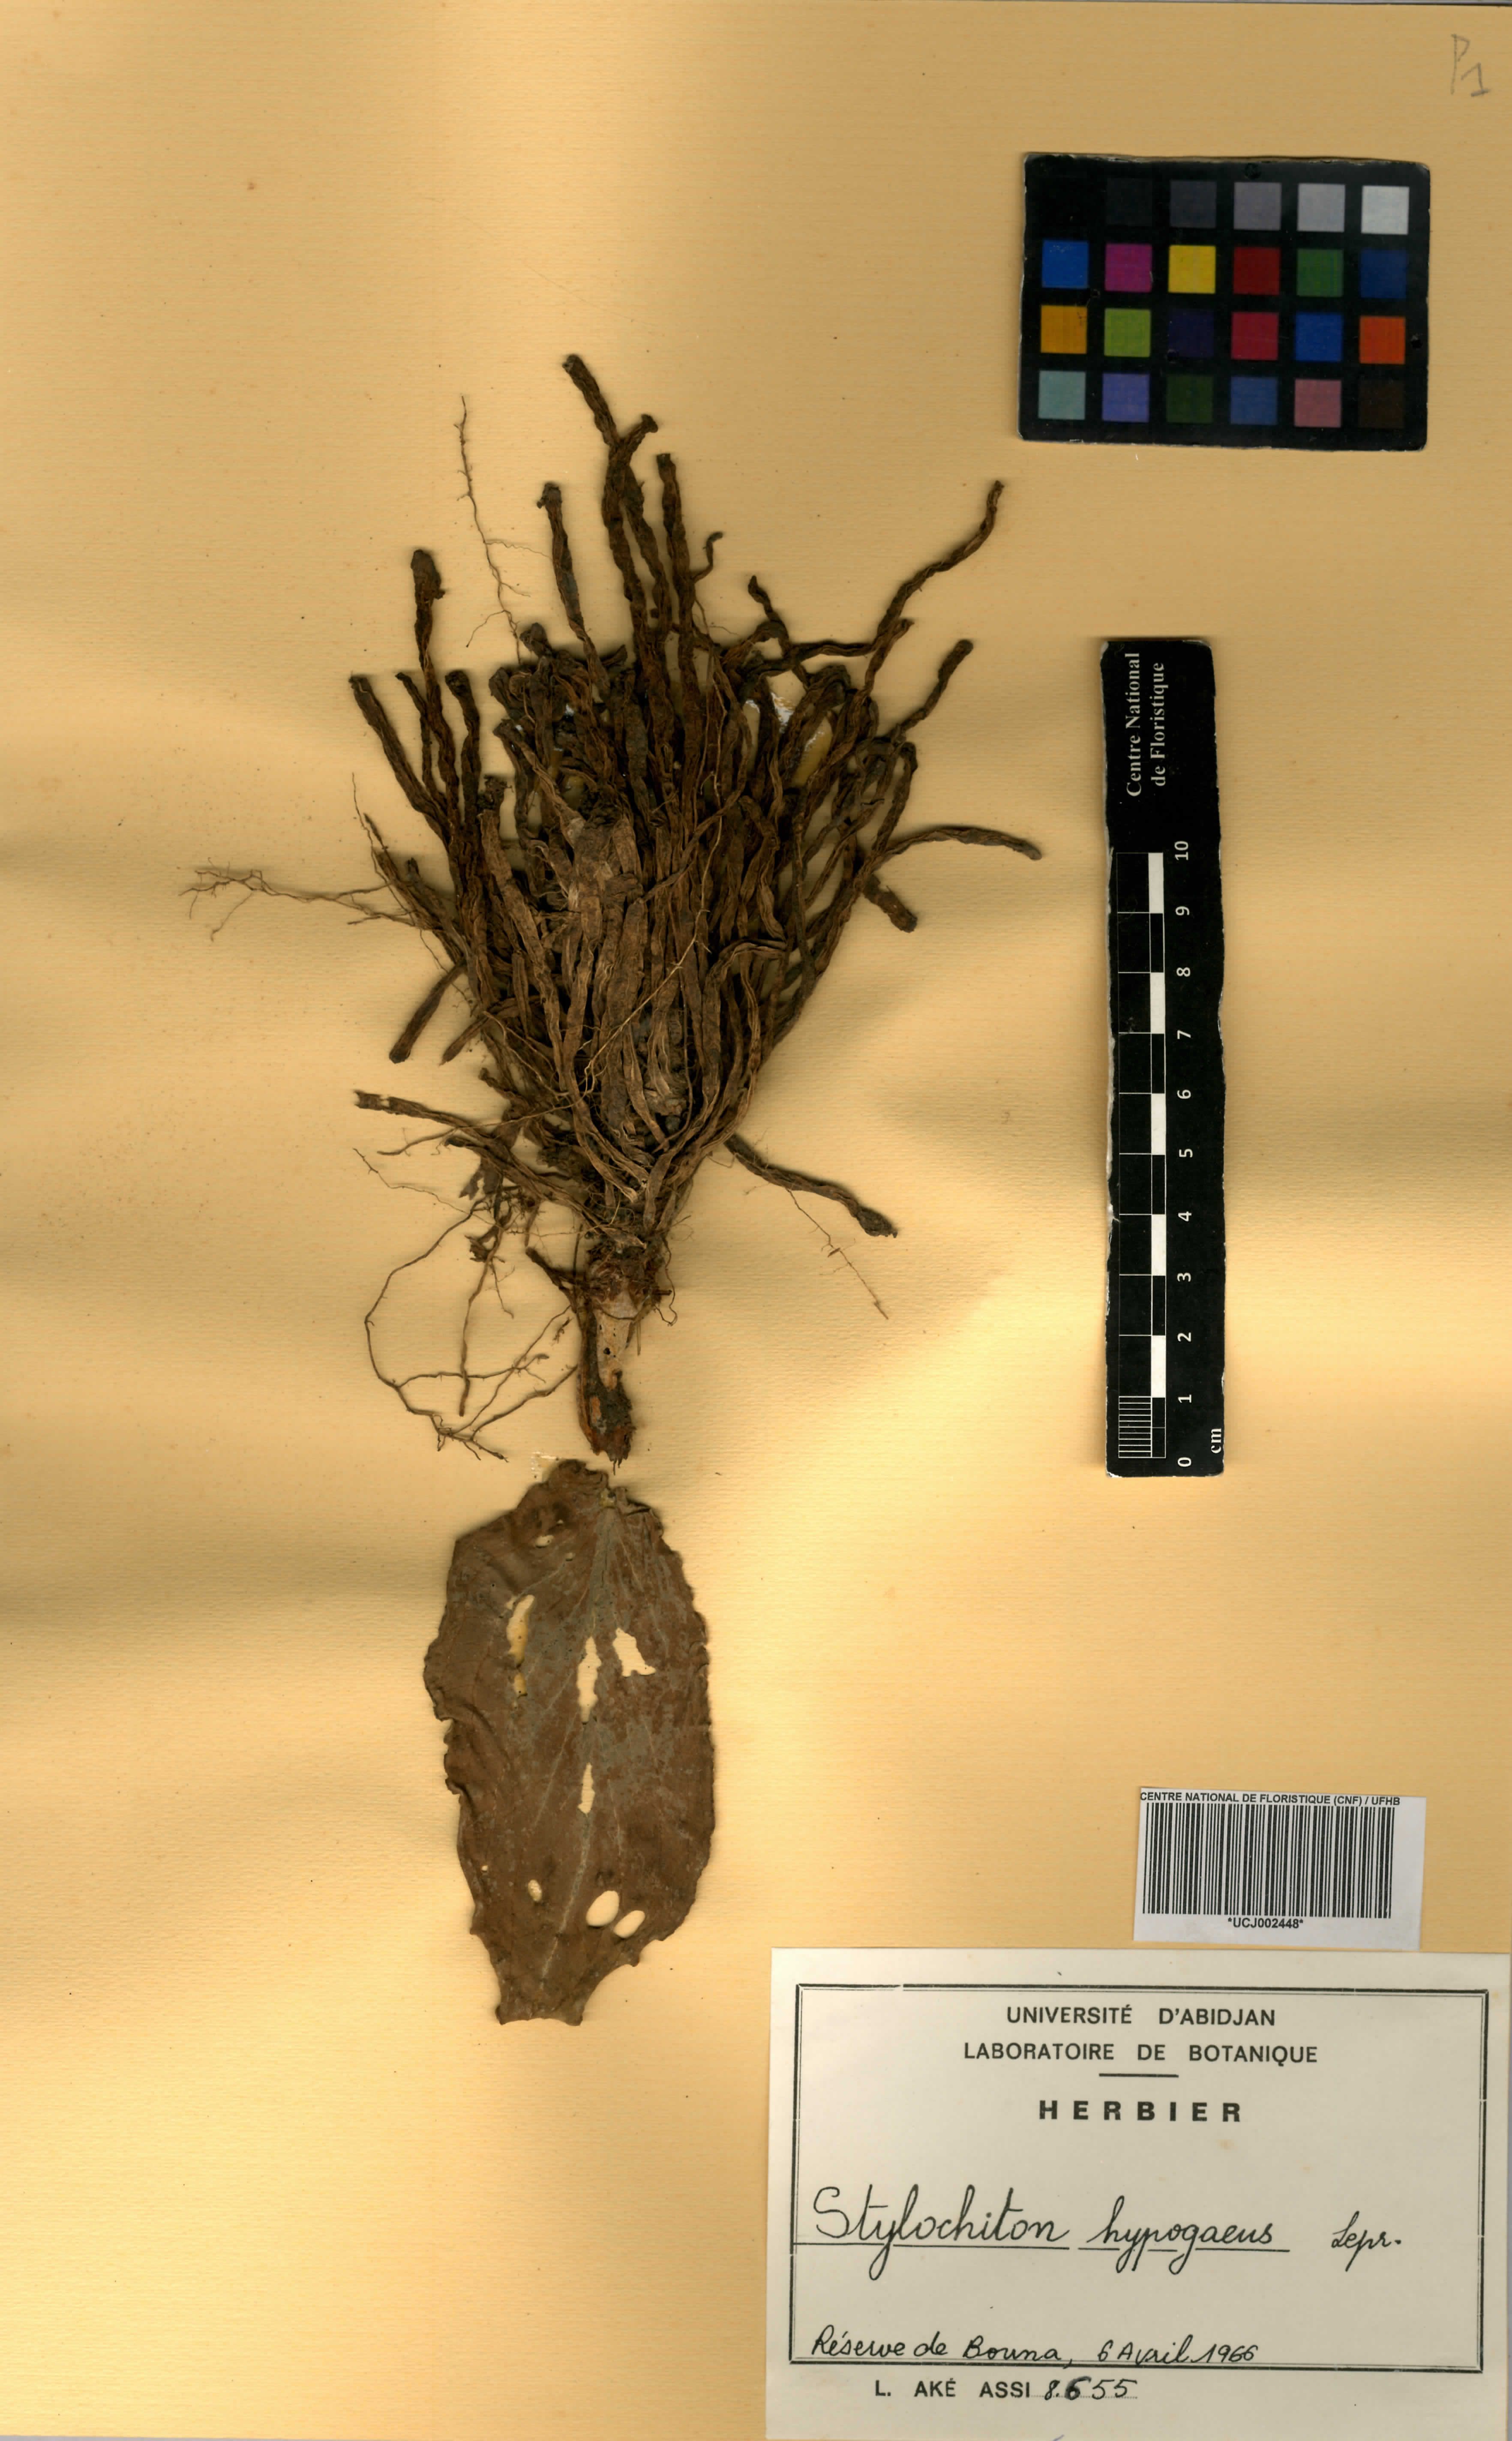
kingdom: Plantae
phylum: Tracheophyta
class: Liliopsida
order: Alismatales
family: Araceae
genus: Stylochaeton
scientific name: Stylochaeton hypogaeum
